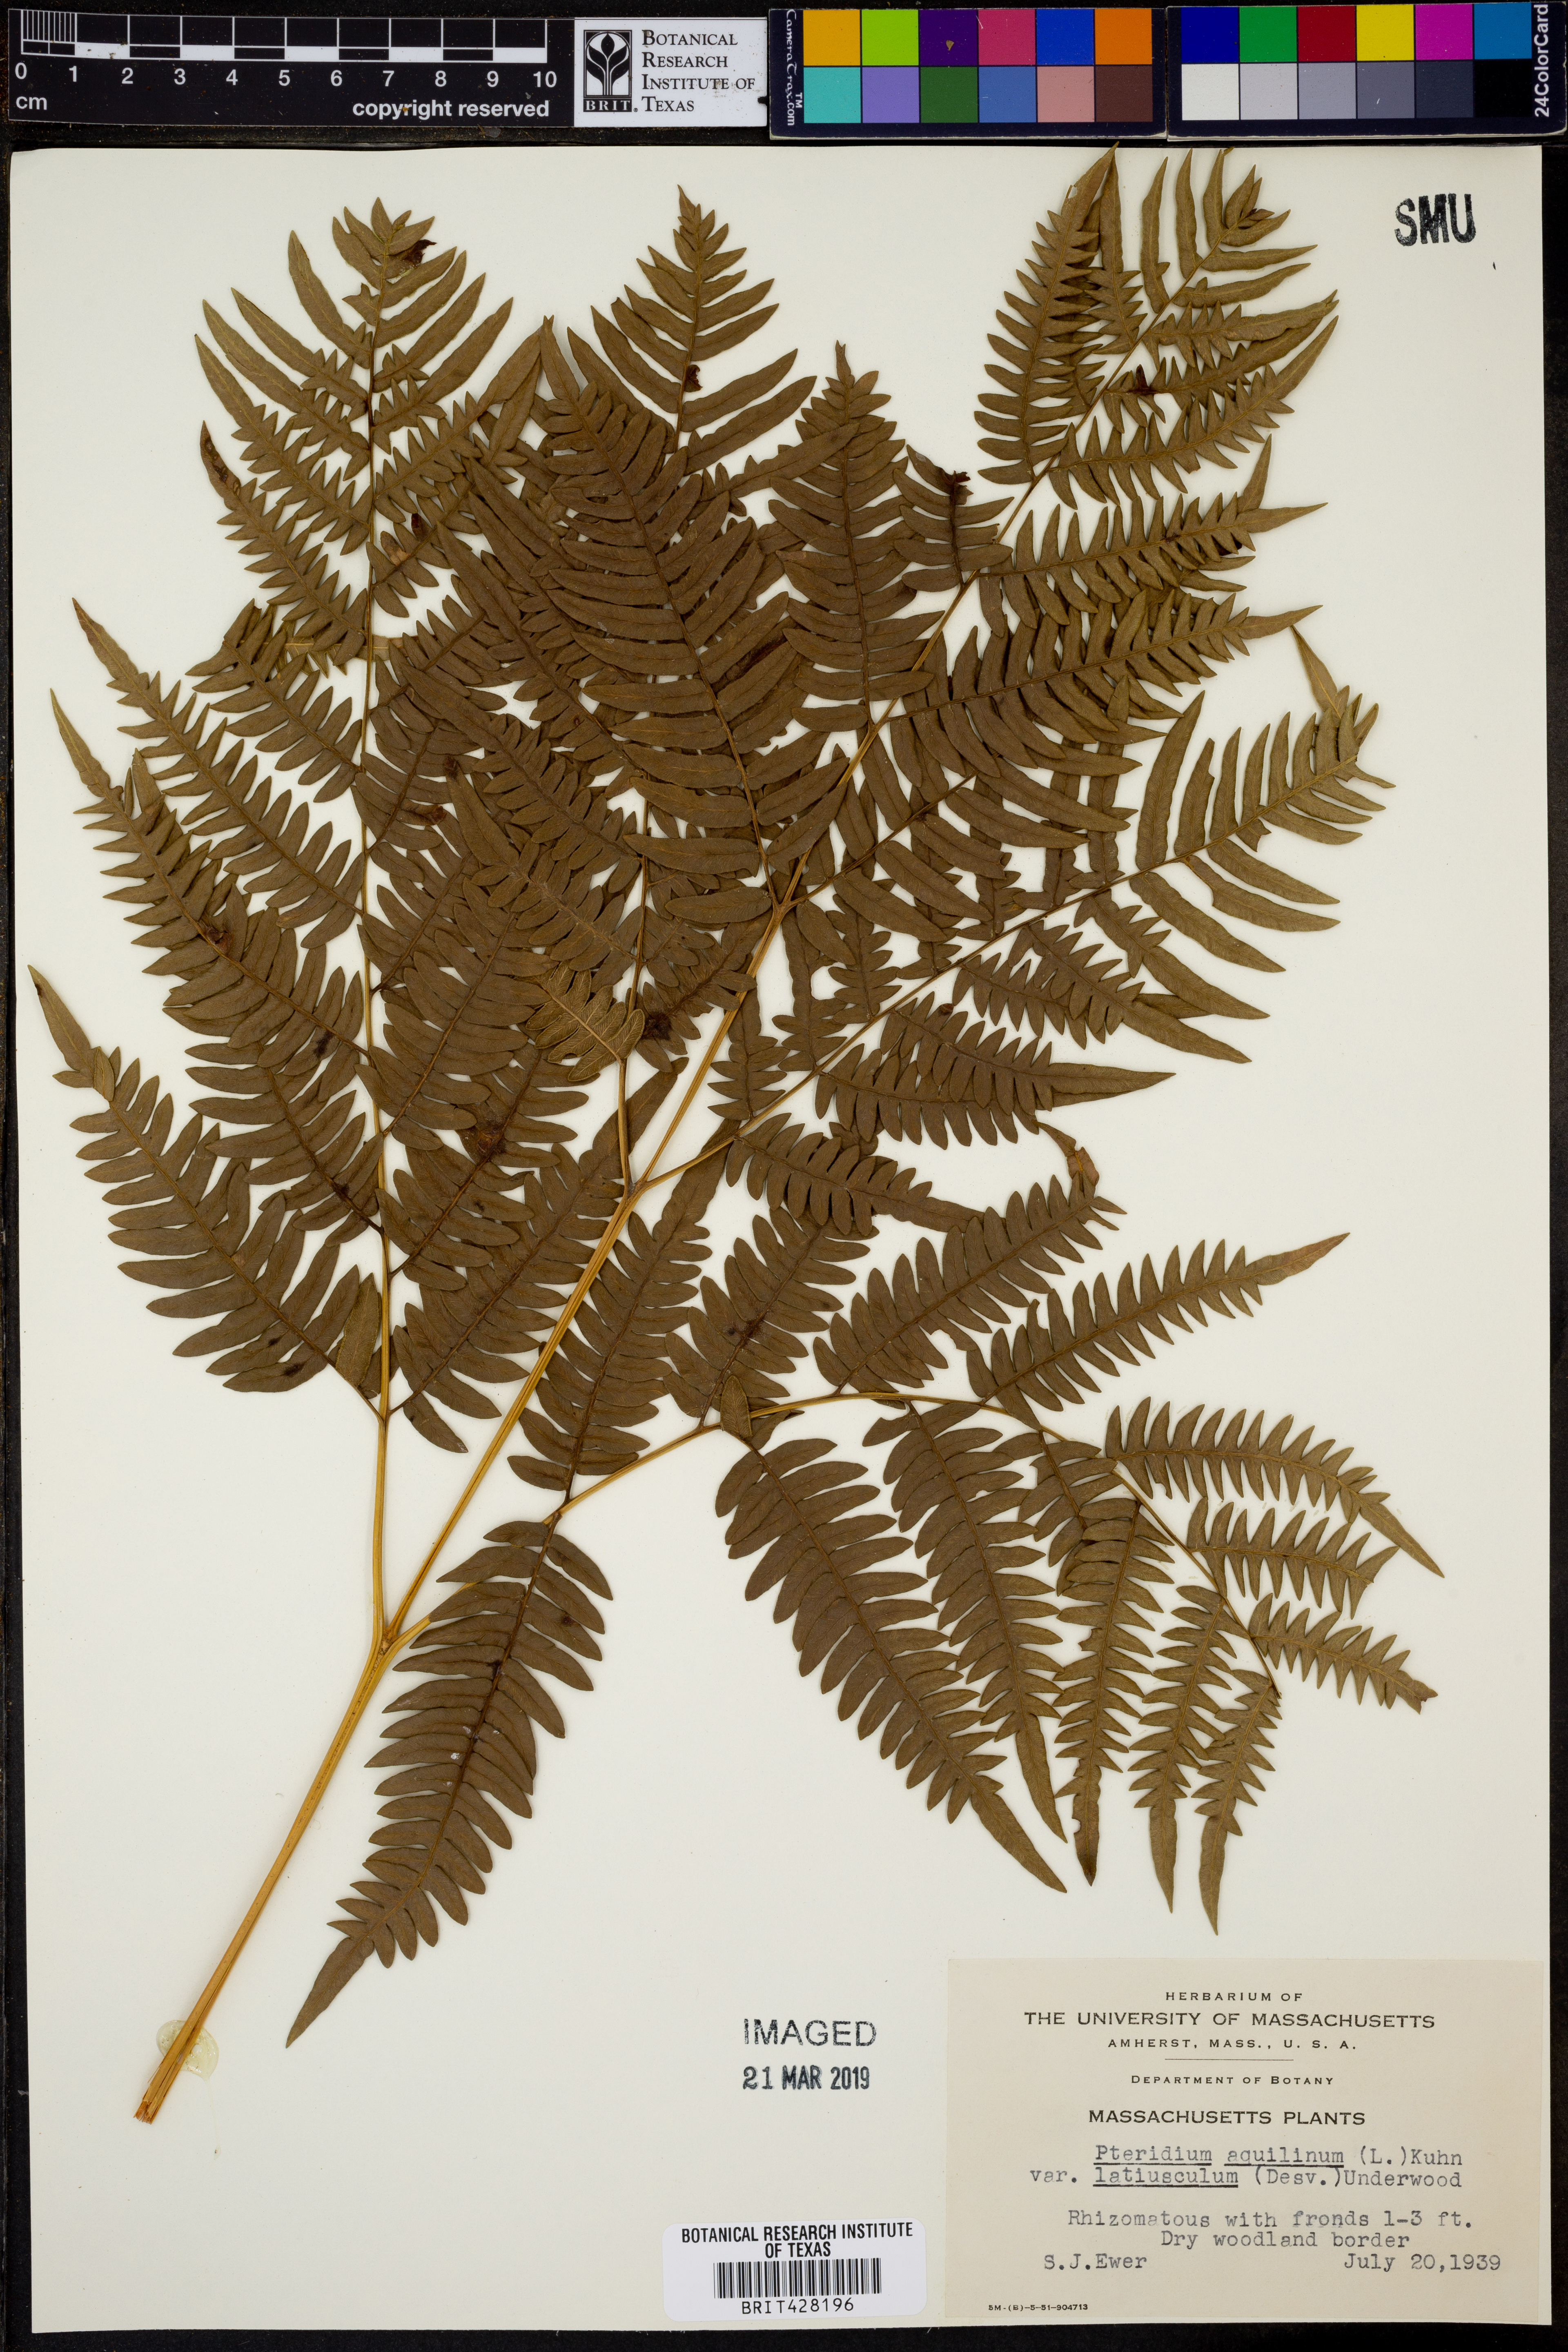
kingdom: Plantae
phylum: Tracheophyta
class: Polypodiopsida
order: Polypodiales
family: Dennstaedtiaceae
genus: Pteridium
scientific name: Pteridium aquilinum
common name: Bracken
